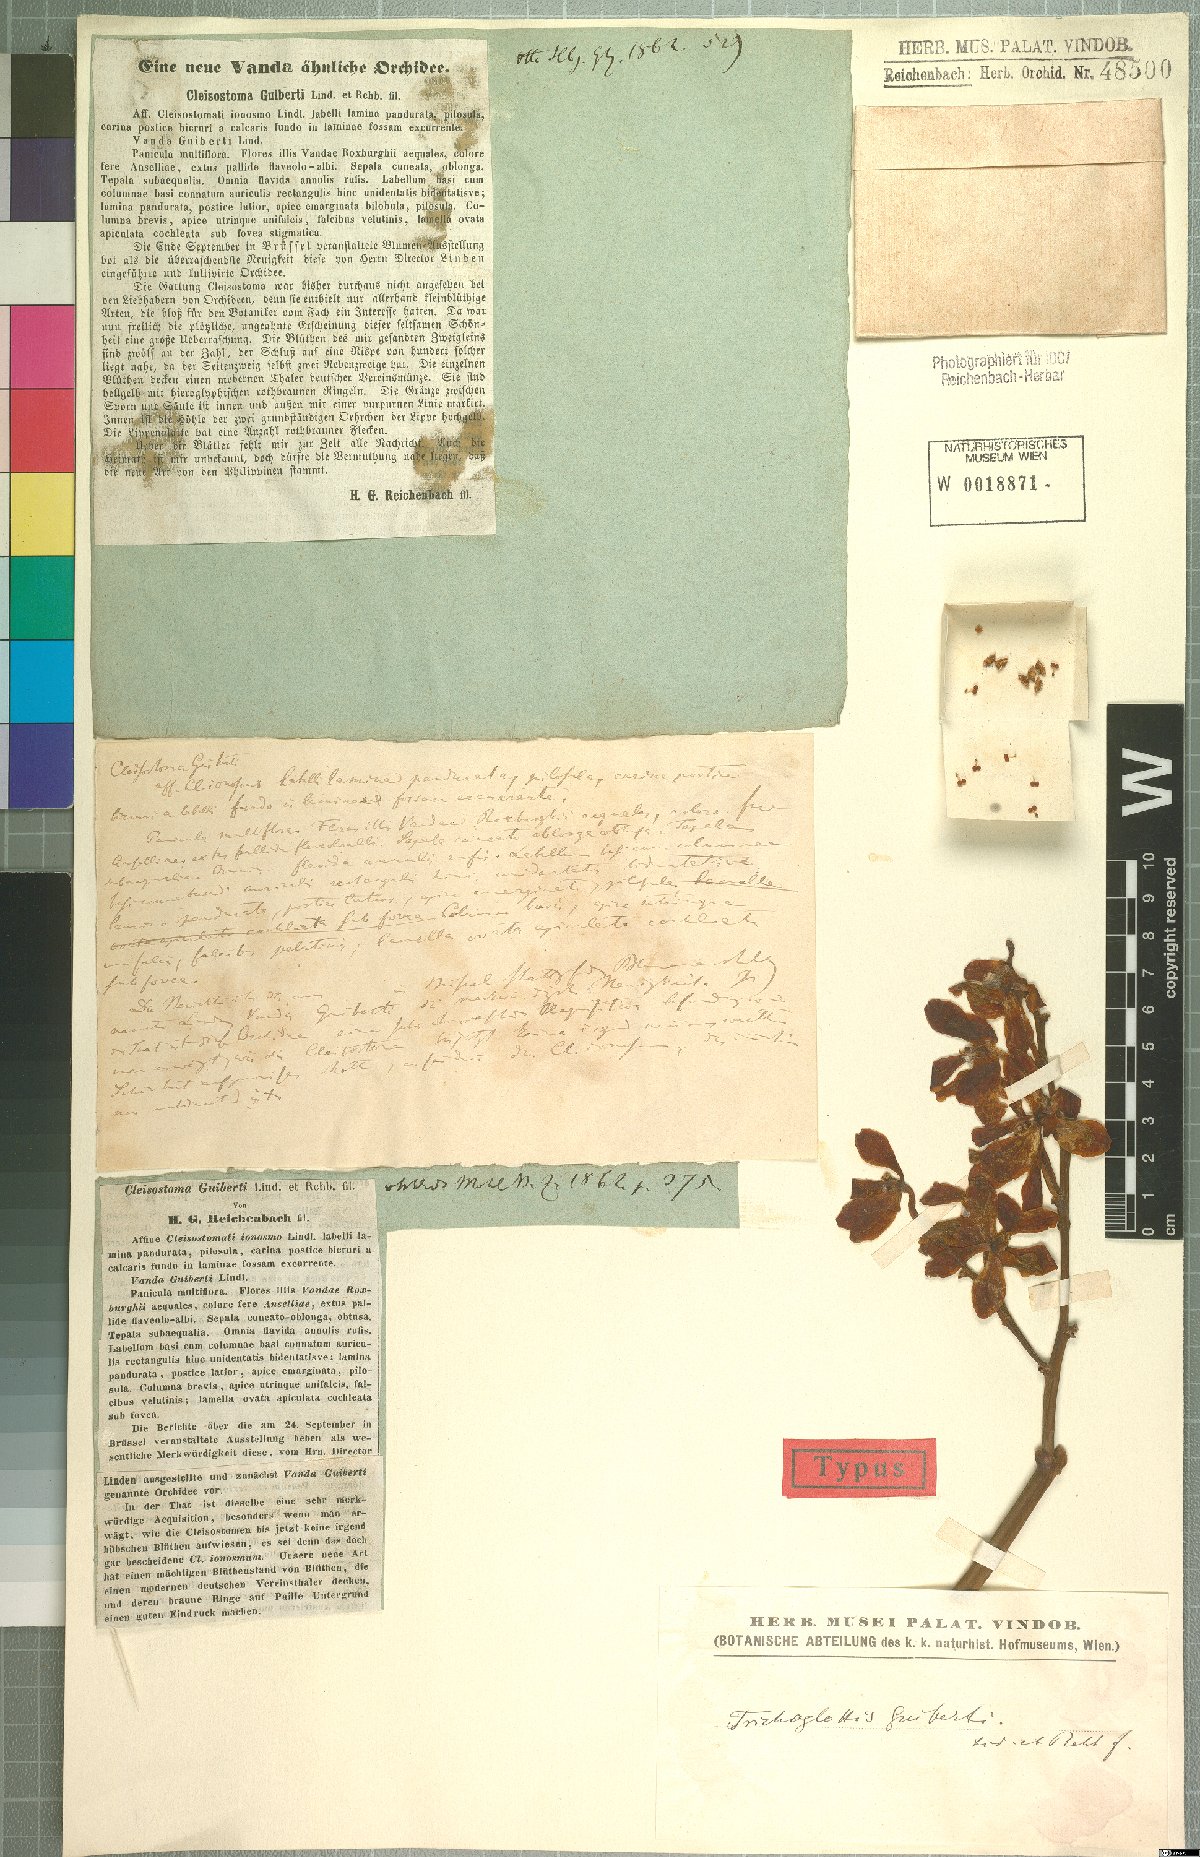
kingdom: Plantae
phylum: Tracheophyta
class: Liliopsida
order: Asparagales
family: Orchidaceae
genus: Trichoglottis
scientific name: Trichoglottis guibertii
